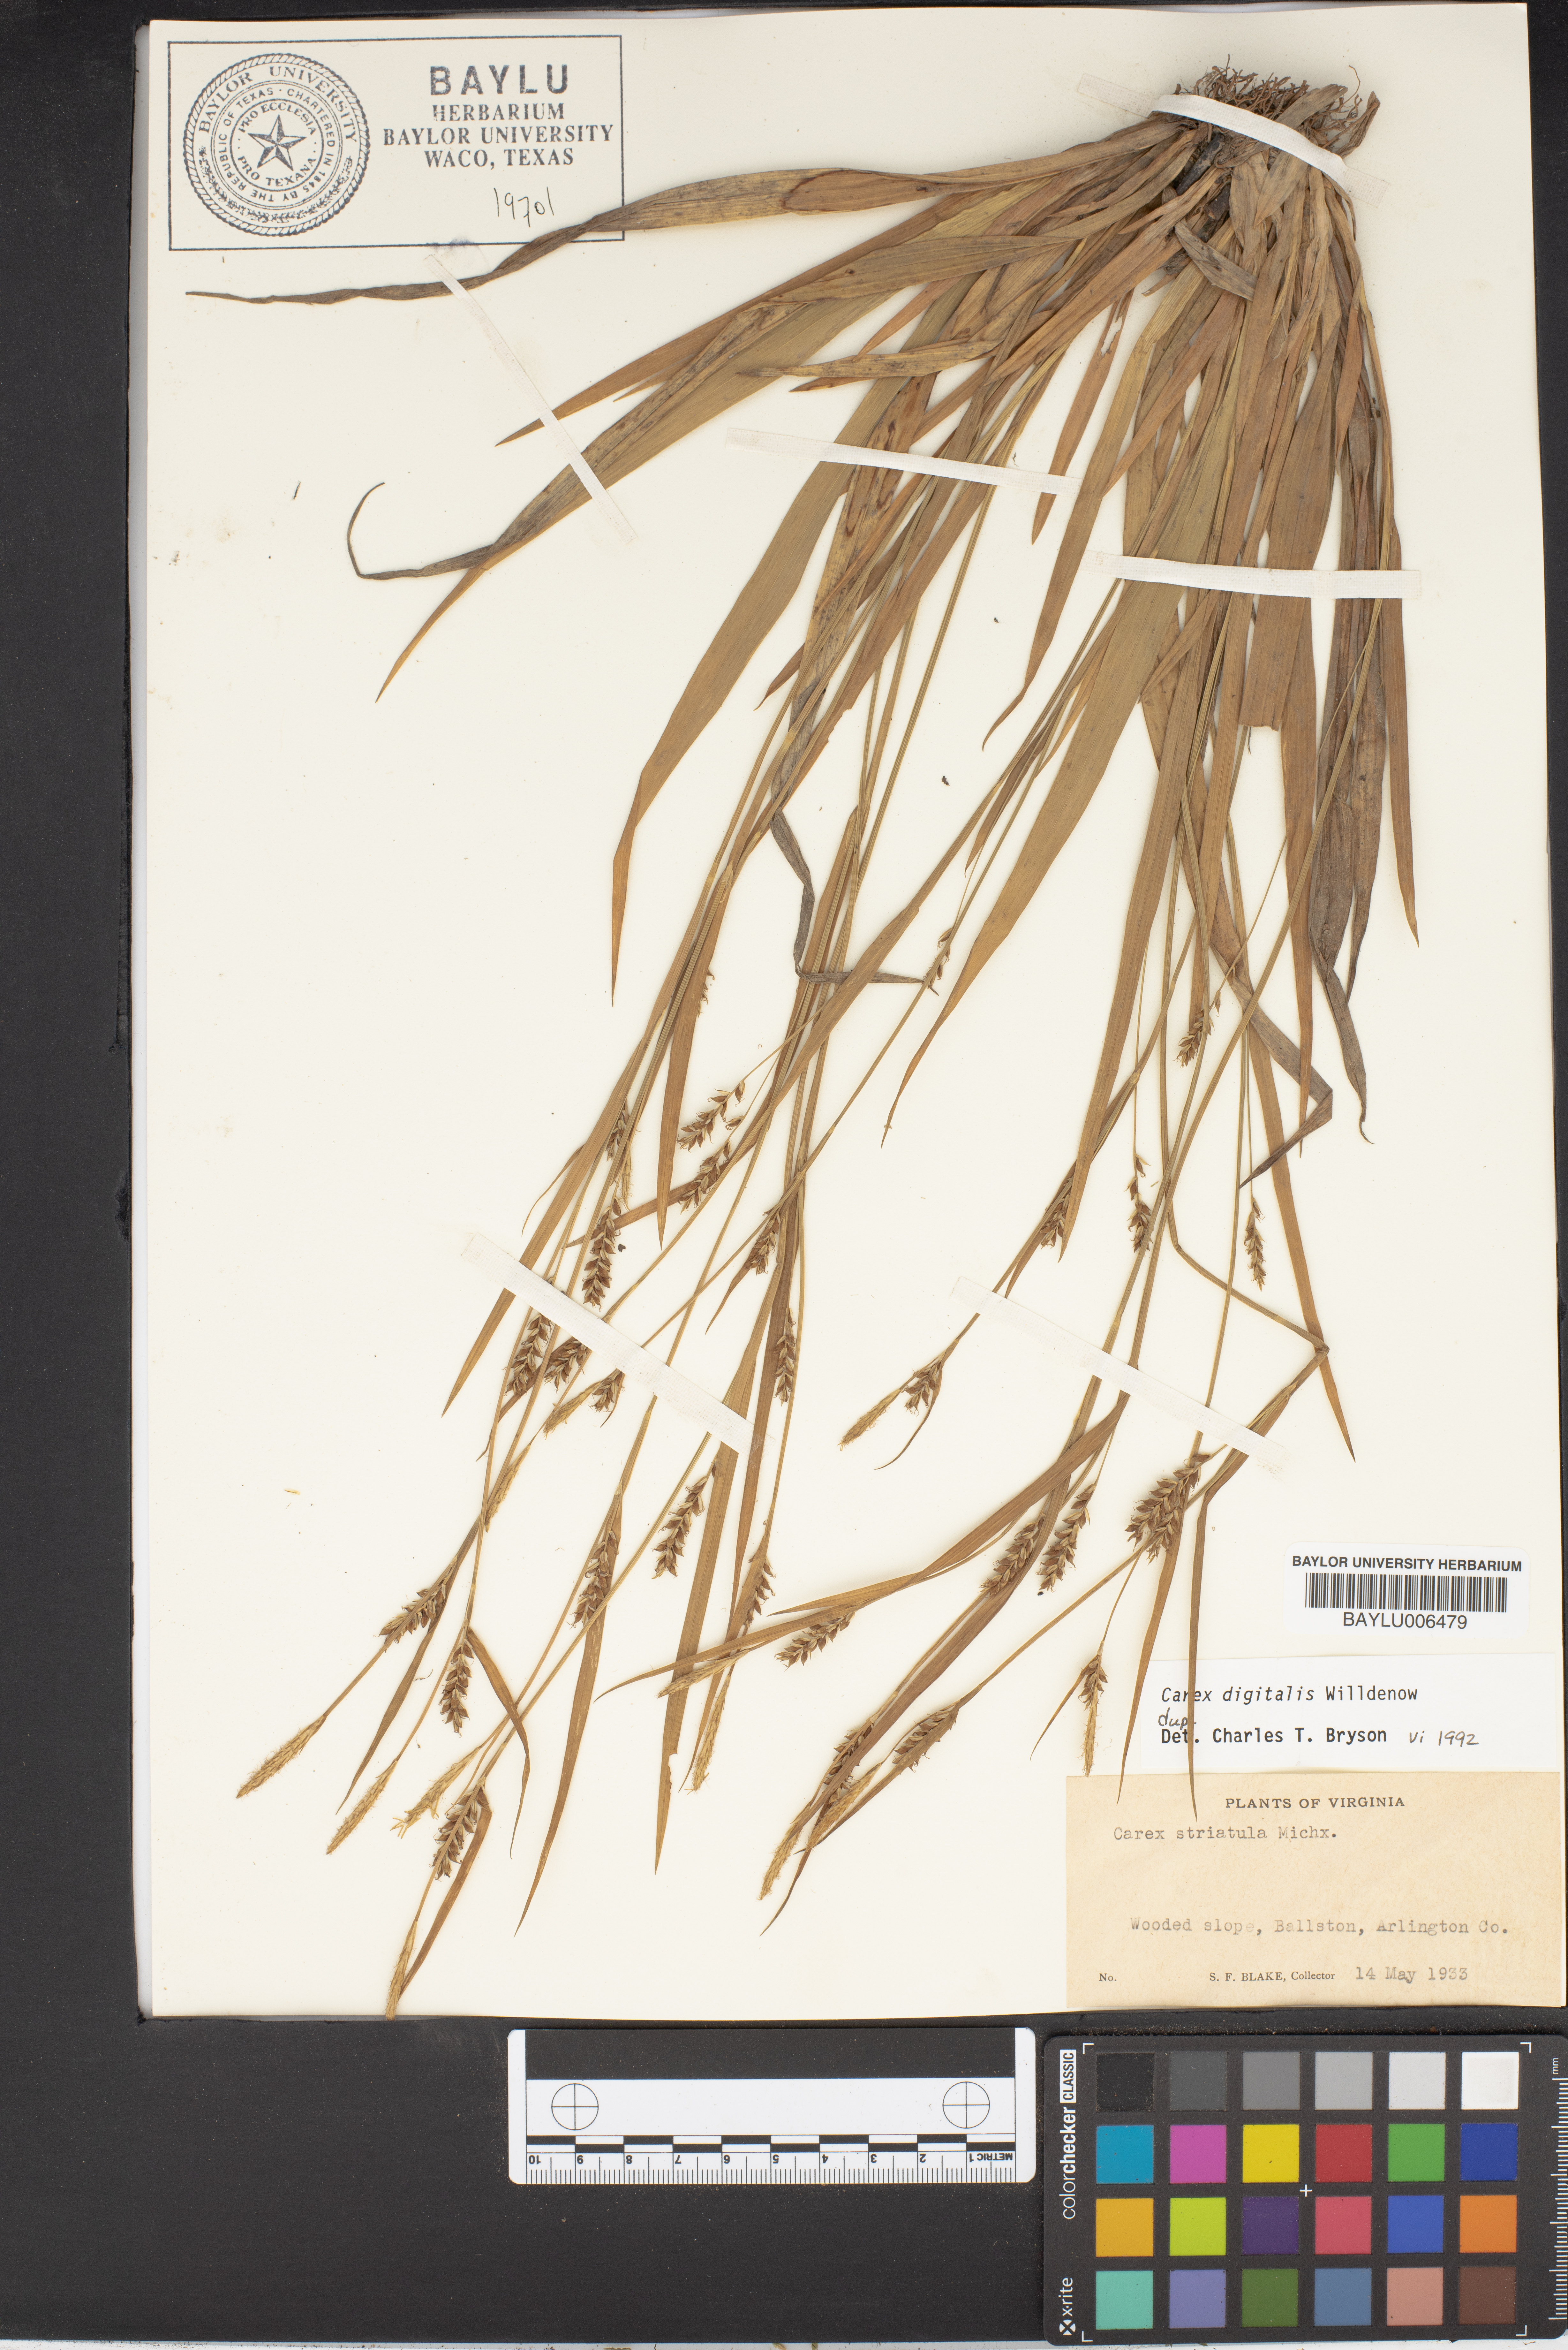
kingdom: Plantae
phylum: Tracheophyta
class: Liliopsida
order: Poales
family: Cyperaceae
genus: Carex
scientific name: Carex striatula
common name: Lined sedge
